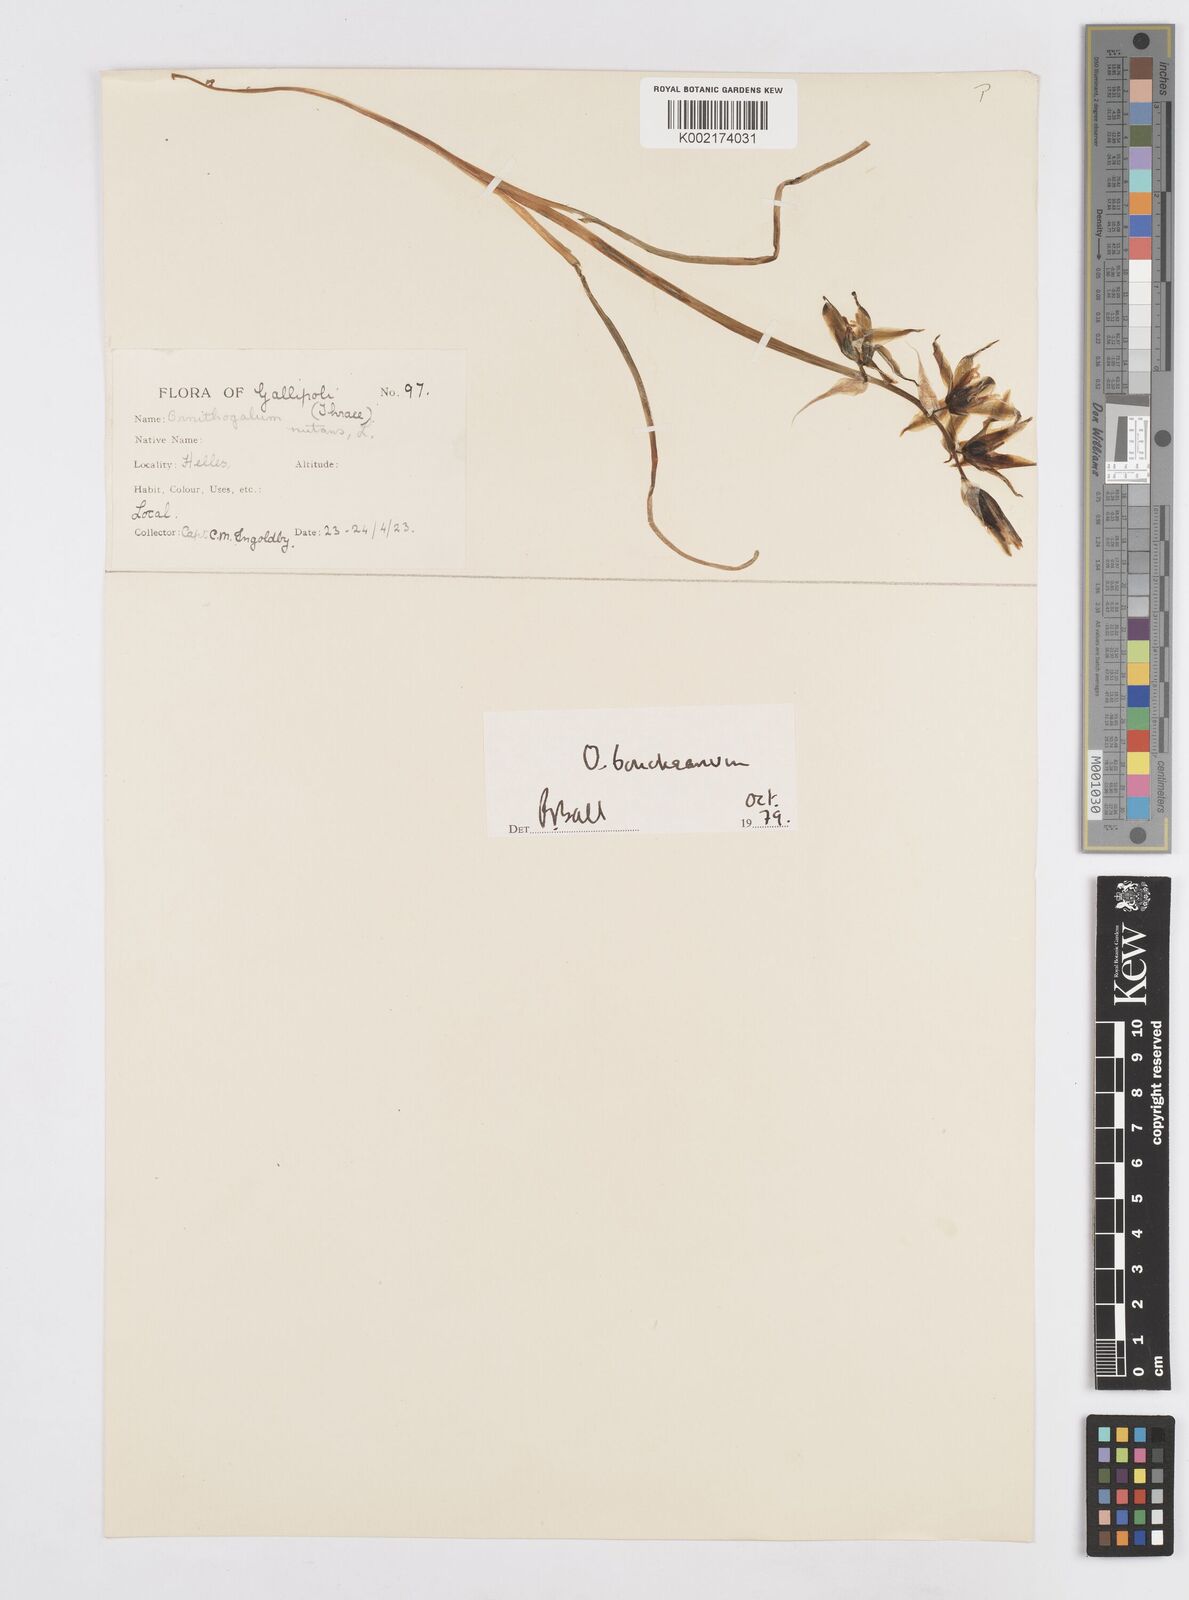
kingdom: Plantae
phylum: Tracheophyta
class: Liliopsida
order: Asparagales
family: Asparagaceae
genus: Ornithogalum
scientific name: Ornithogalum nutans
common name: Drooping star-of-bethlehem
